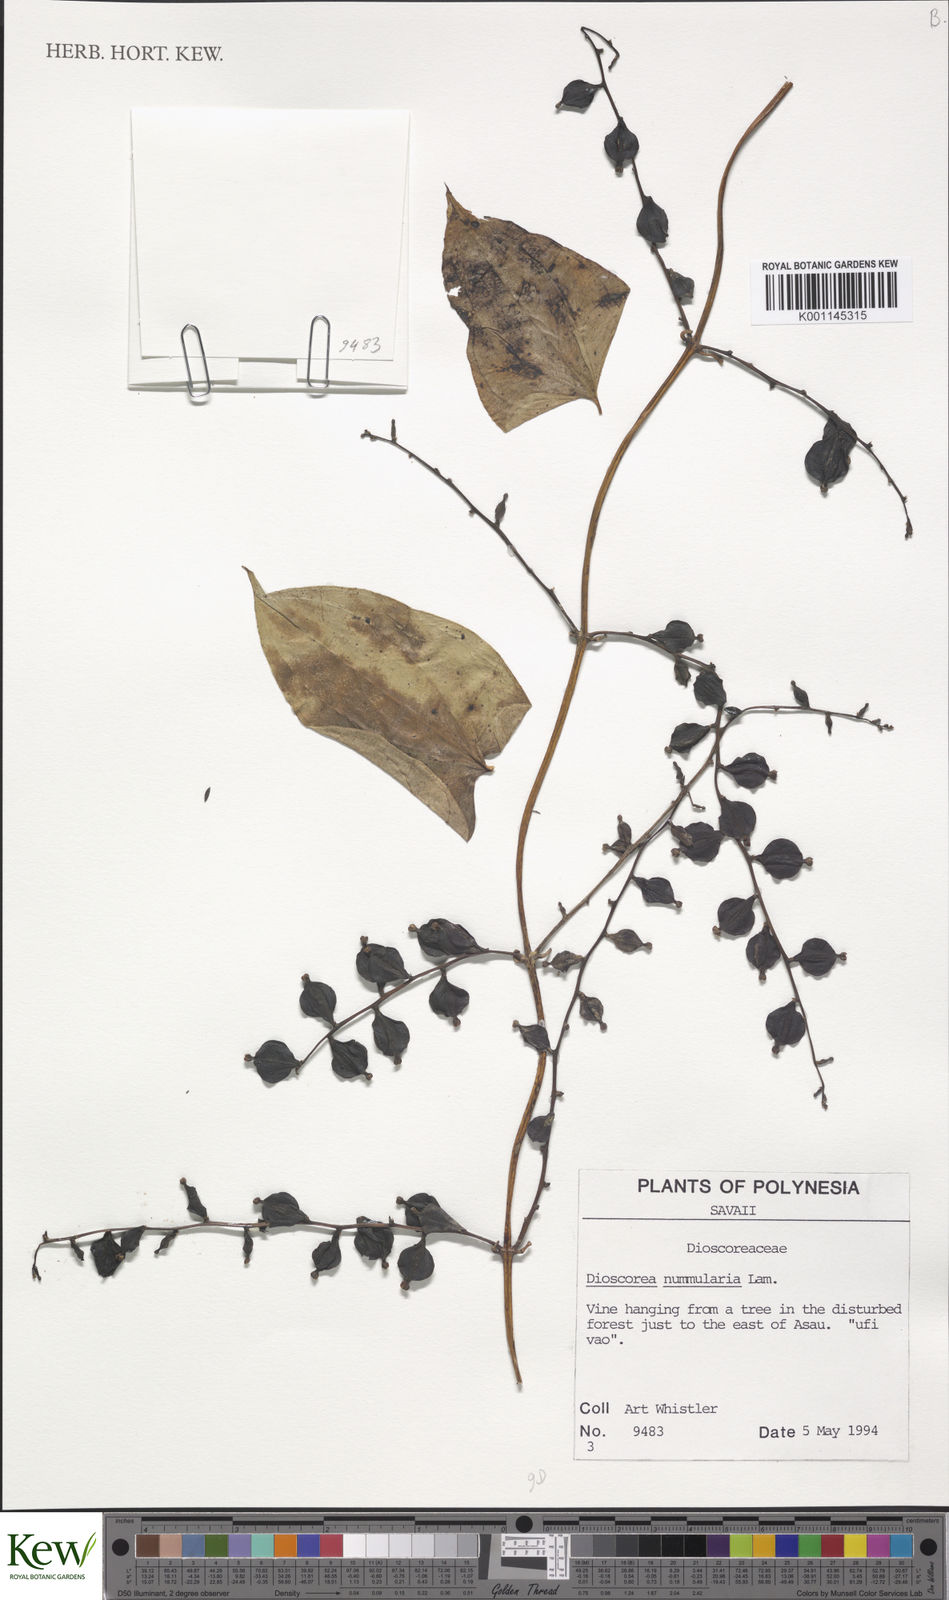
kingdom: Plantae
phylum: Tracheophyta
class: Liliopsida
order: Dioscoreales
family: Dioscoreaceae
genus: Dioscorea
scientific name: Dioscorea nummularia
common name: Pacific yam
